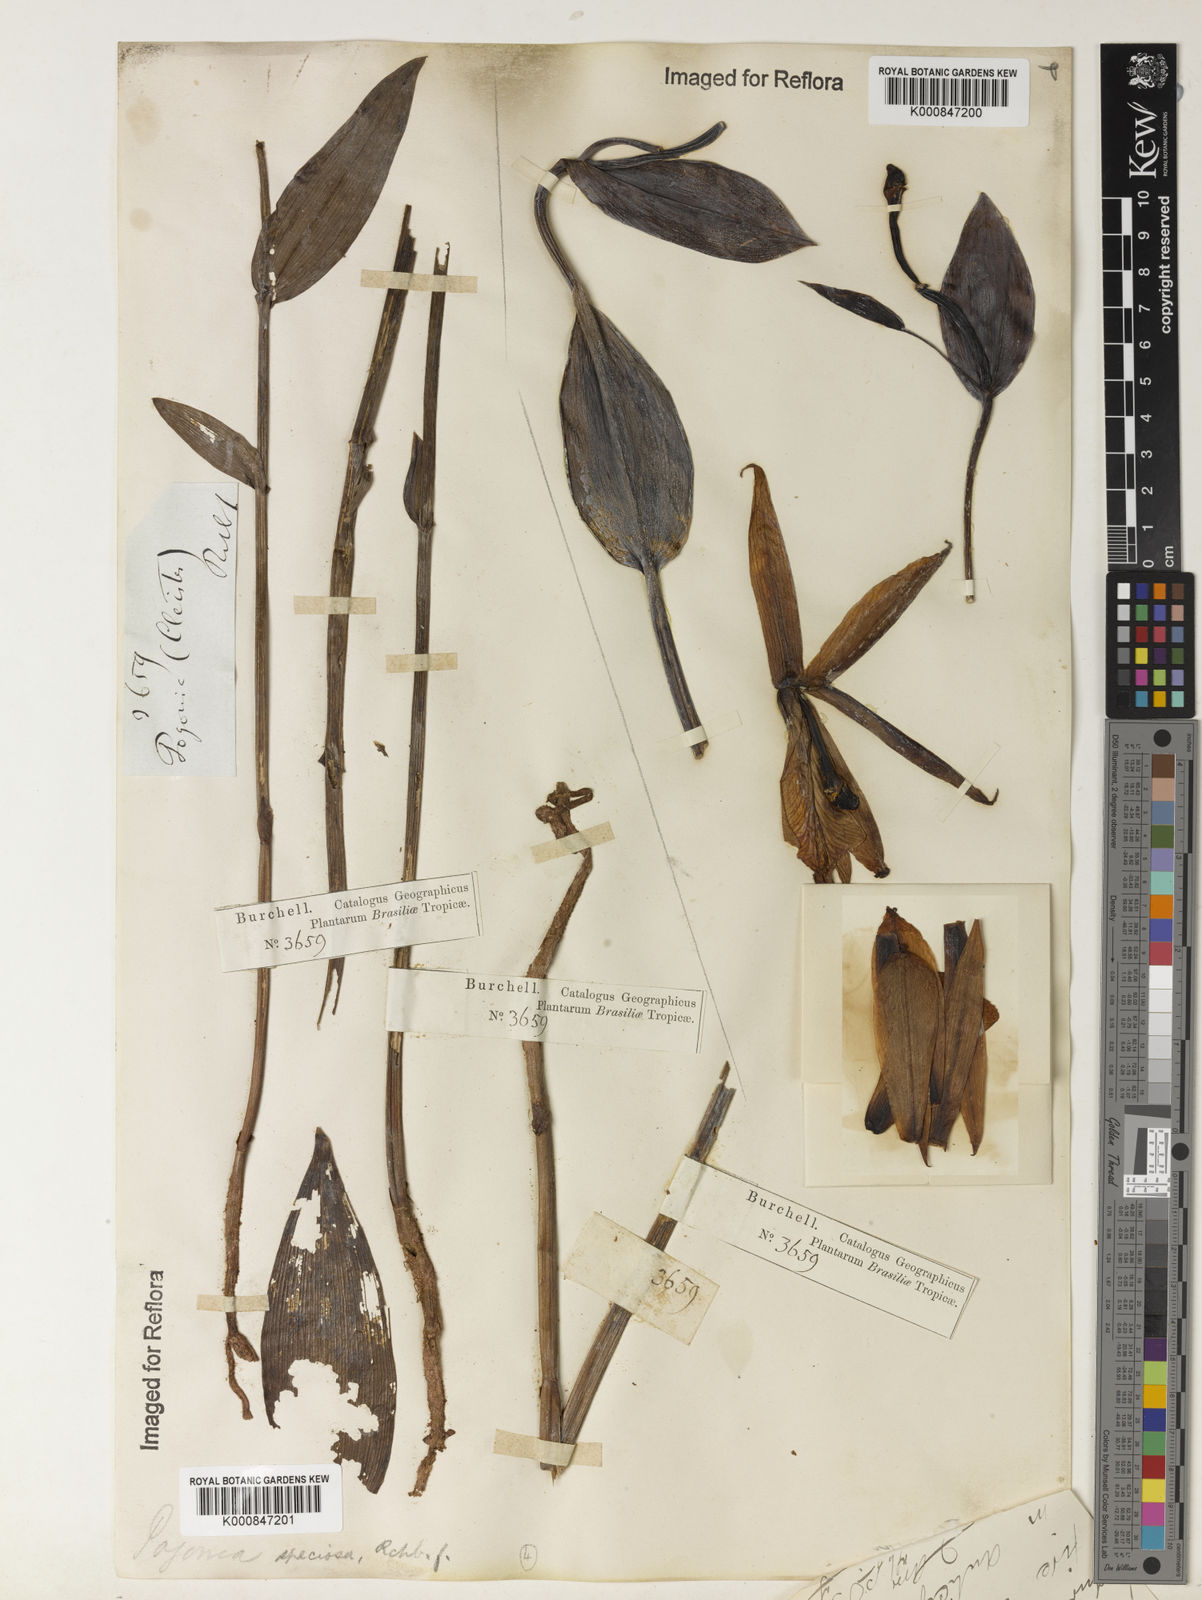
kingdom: Plantae
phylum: Tracheophyta
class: Liliopsida
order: Asparagales
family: Orchidaceae
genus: Cleistes
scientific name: Cleistes speciosa
